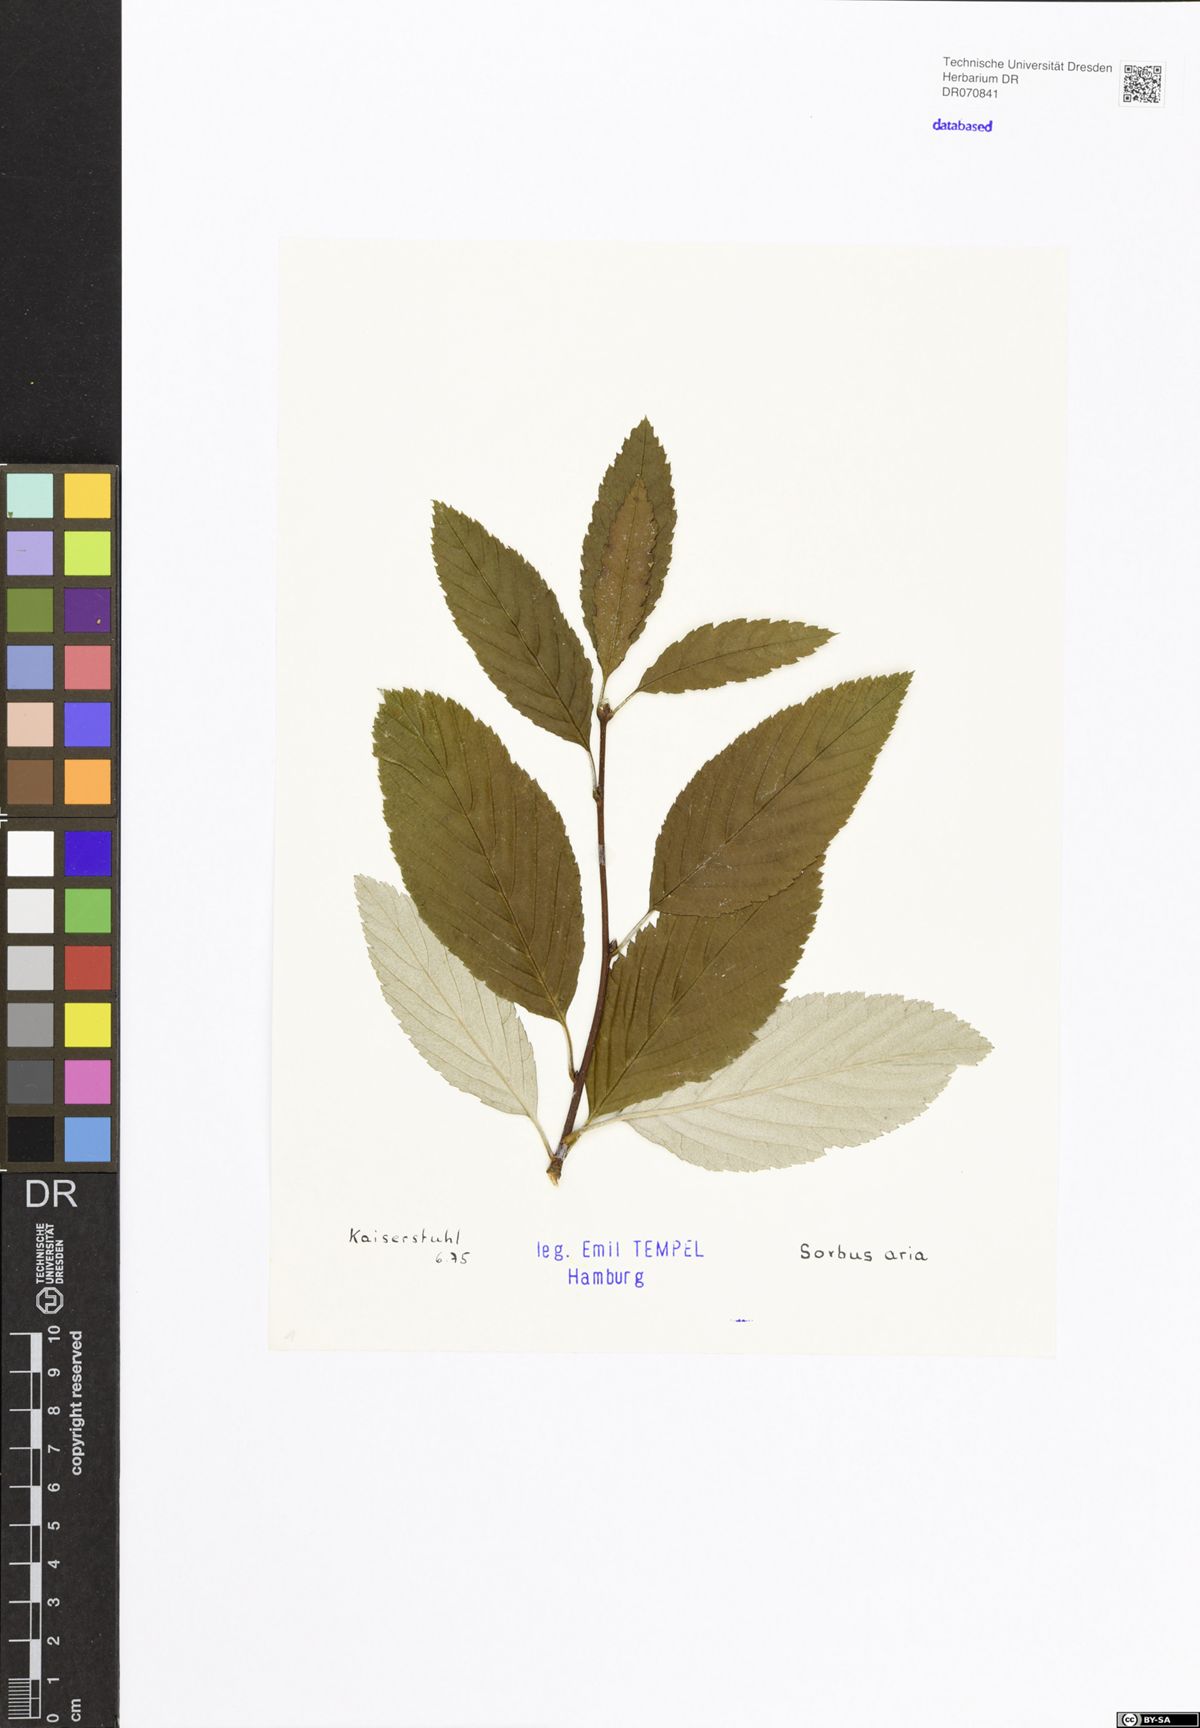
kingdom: Plantae
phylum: Tracheophyta
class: Magnoliopsida
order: Rosales
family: Rosaceae
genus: Aria
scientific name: Aria edulis
